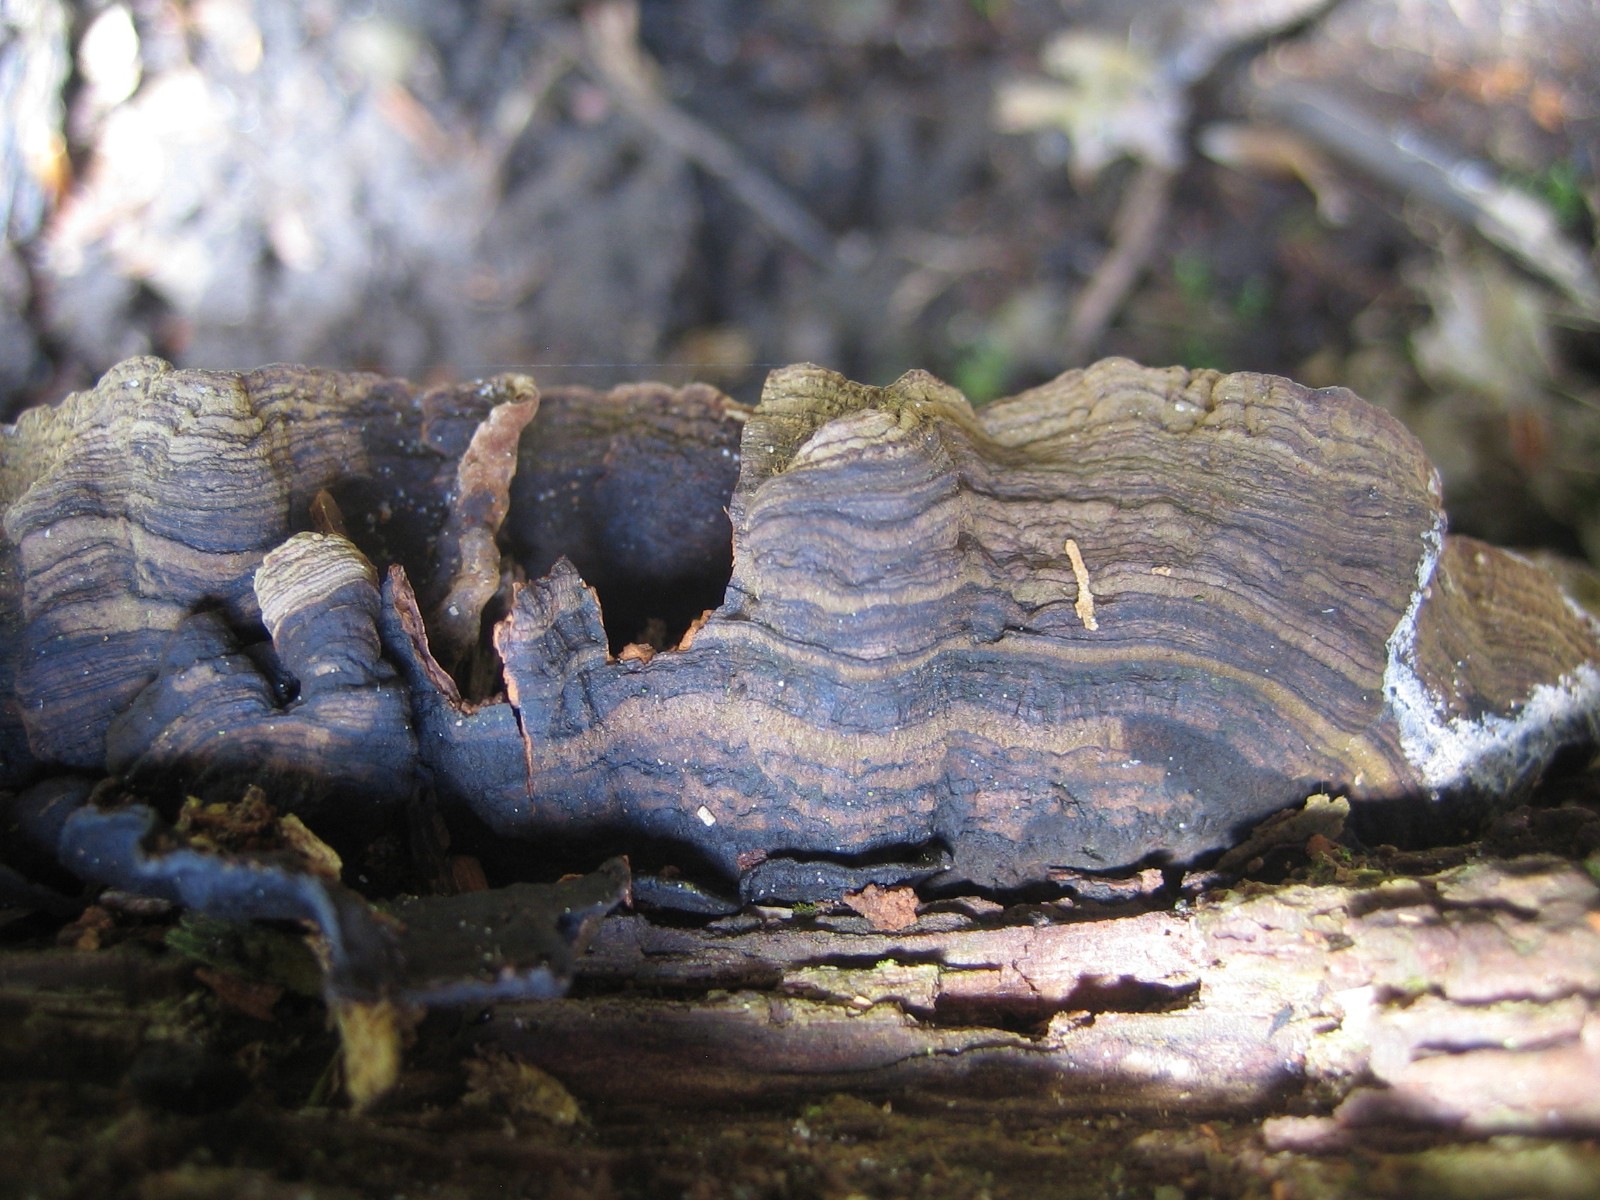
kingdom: Fungi
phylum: Basidiomycota
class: Agaricomycetes
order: Hymenochaetales
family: Hymenochaetaceae
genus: Hymenochaete
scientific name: Hymenochaete rubiginosa
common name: stiv ruslædersvamp
